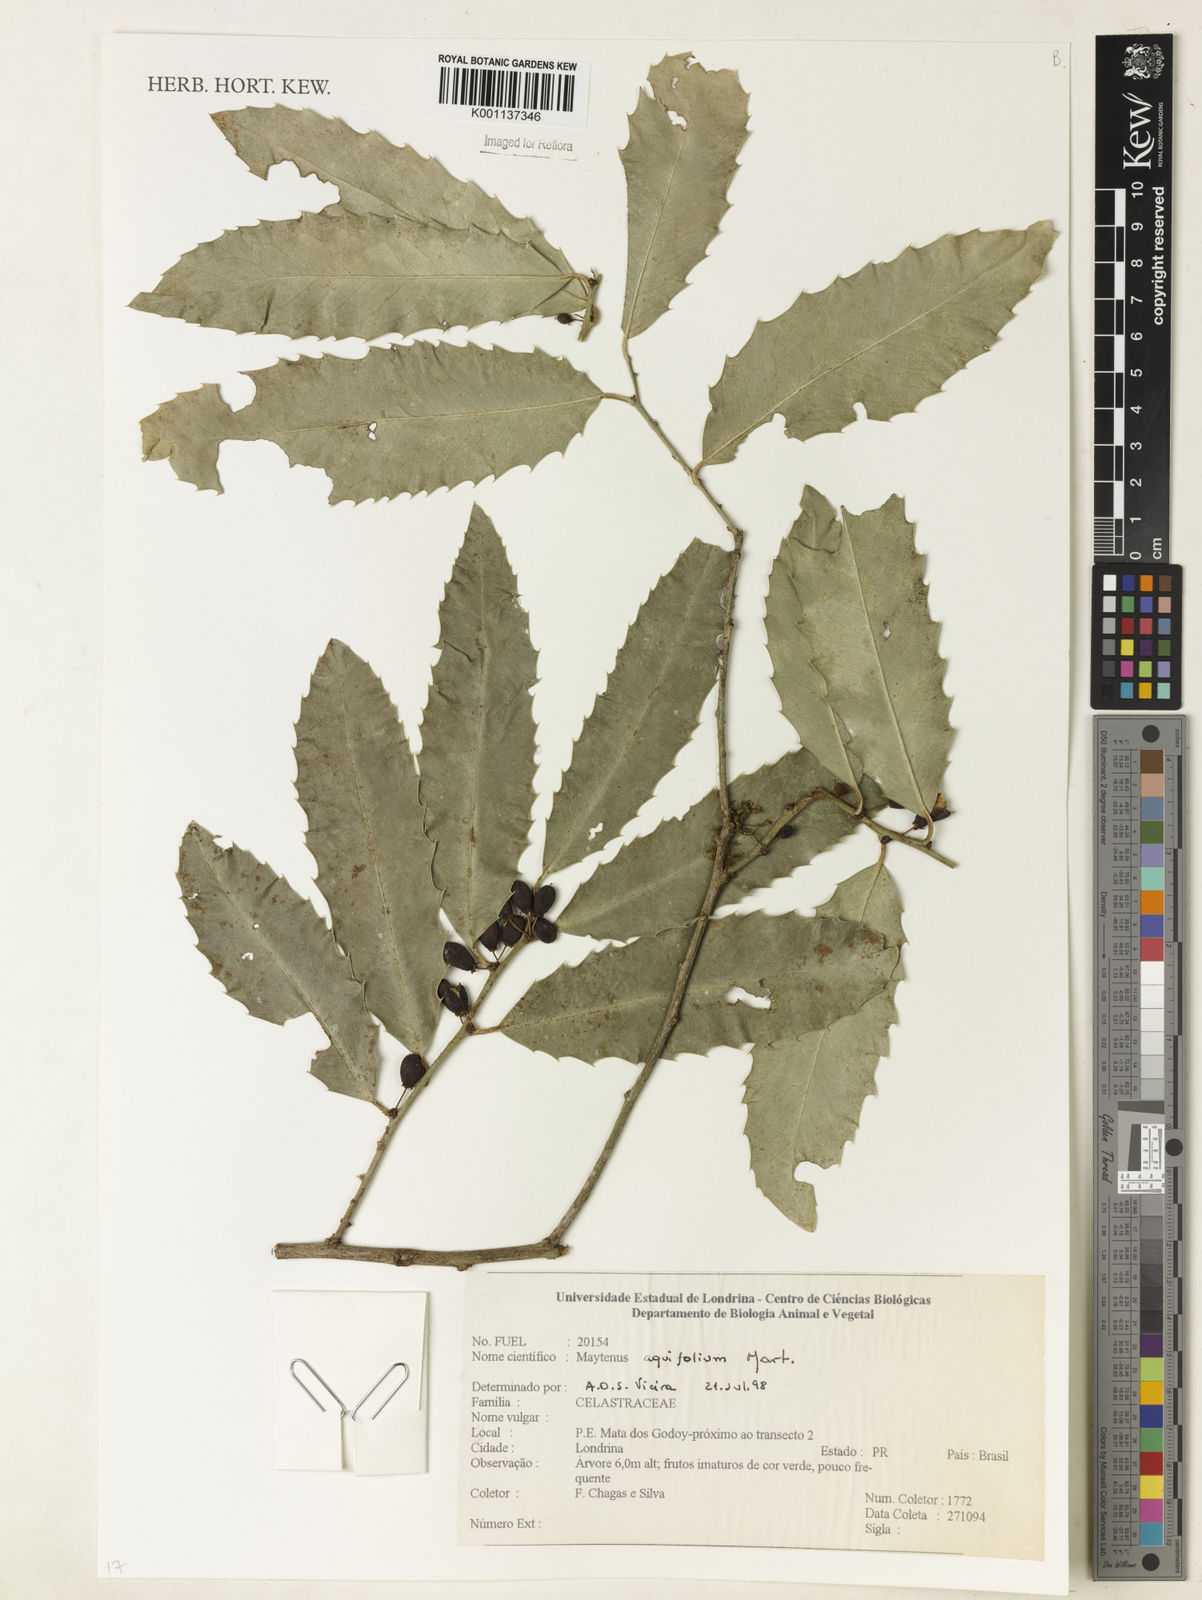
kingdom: Plantae
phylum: Tracheophyta
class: Magnoliopsida
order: Celastrales
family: Celastraceae
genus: Monteverdia
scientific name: Monteverdia aquifolium
